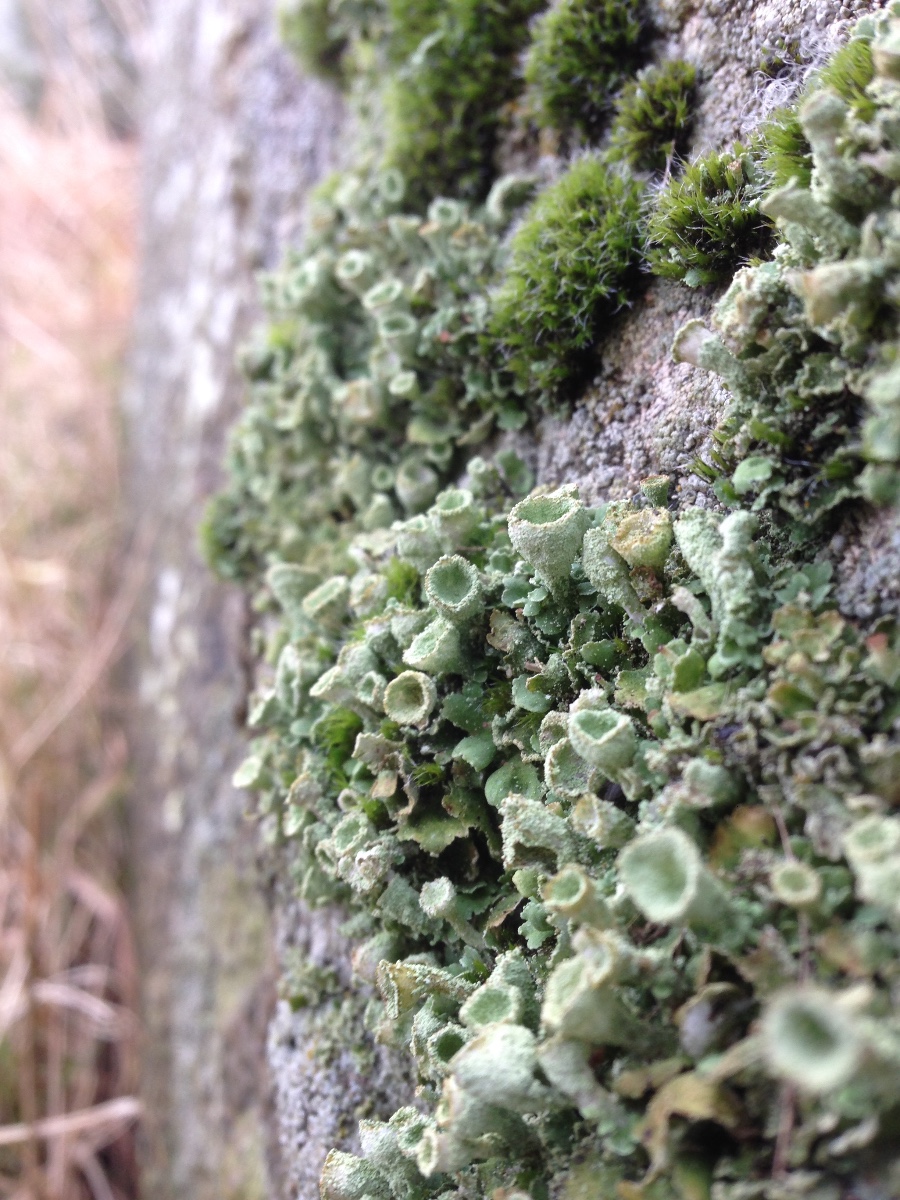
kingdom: Fungi
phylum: Ascomycota
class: Lecanoromycetes
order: Lecanorales
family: Cladoniaceae
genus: Cladonia
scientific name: Cladonia humilis
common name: lav bægerlav
